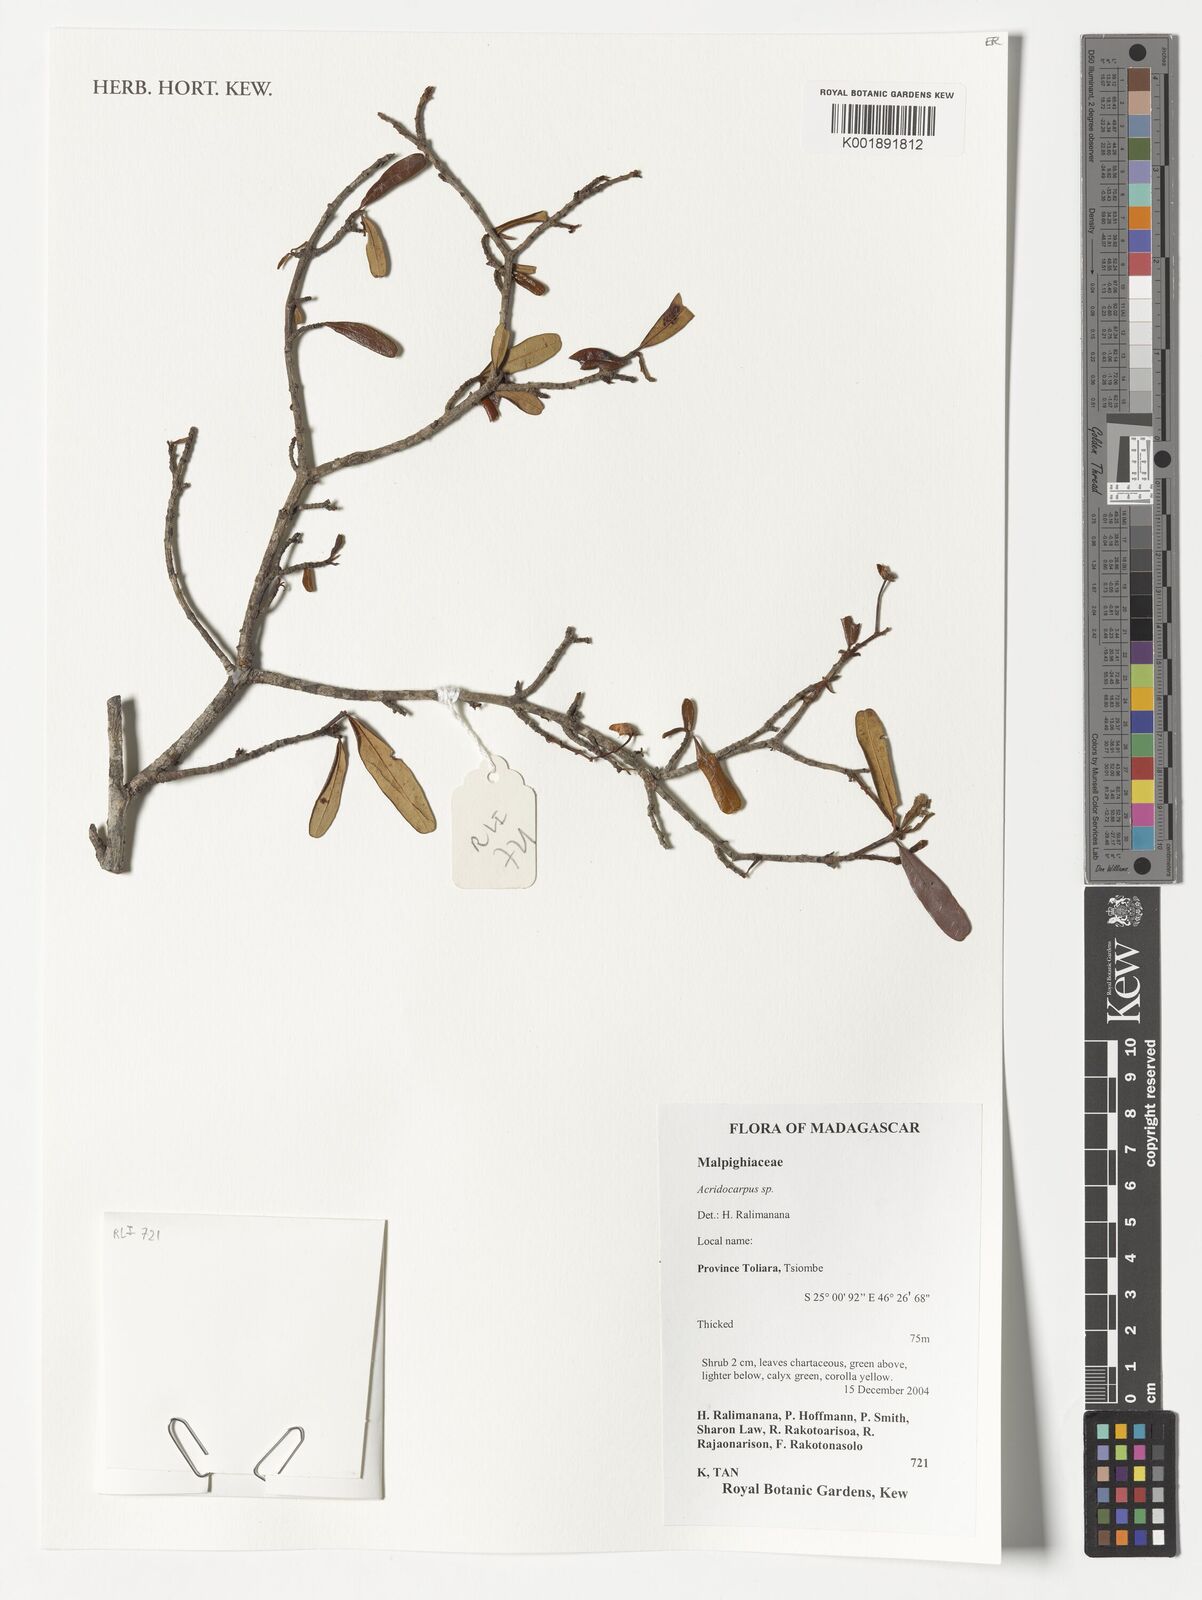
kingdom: Plantae
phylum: Tracheophyta
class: Magnoliopsida
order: Malpighiales
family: Malpighiaceae
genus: Acridocarpus
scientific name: Acridocarpus
